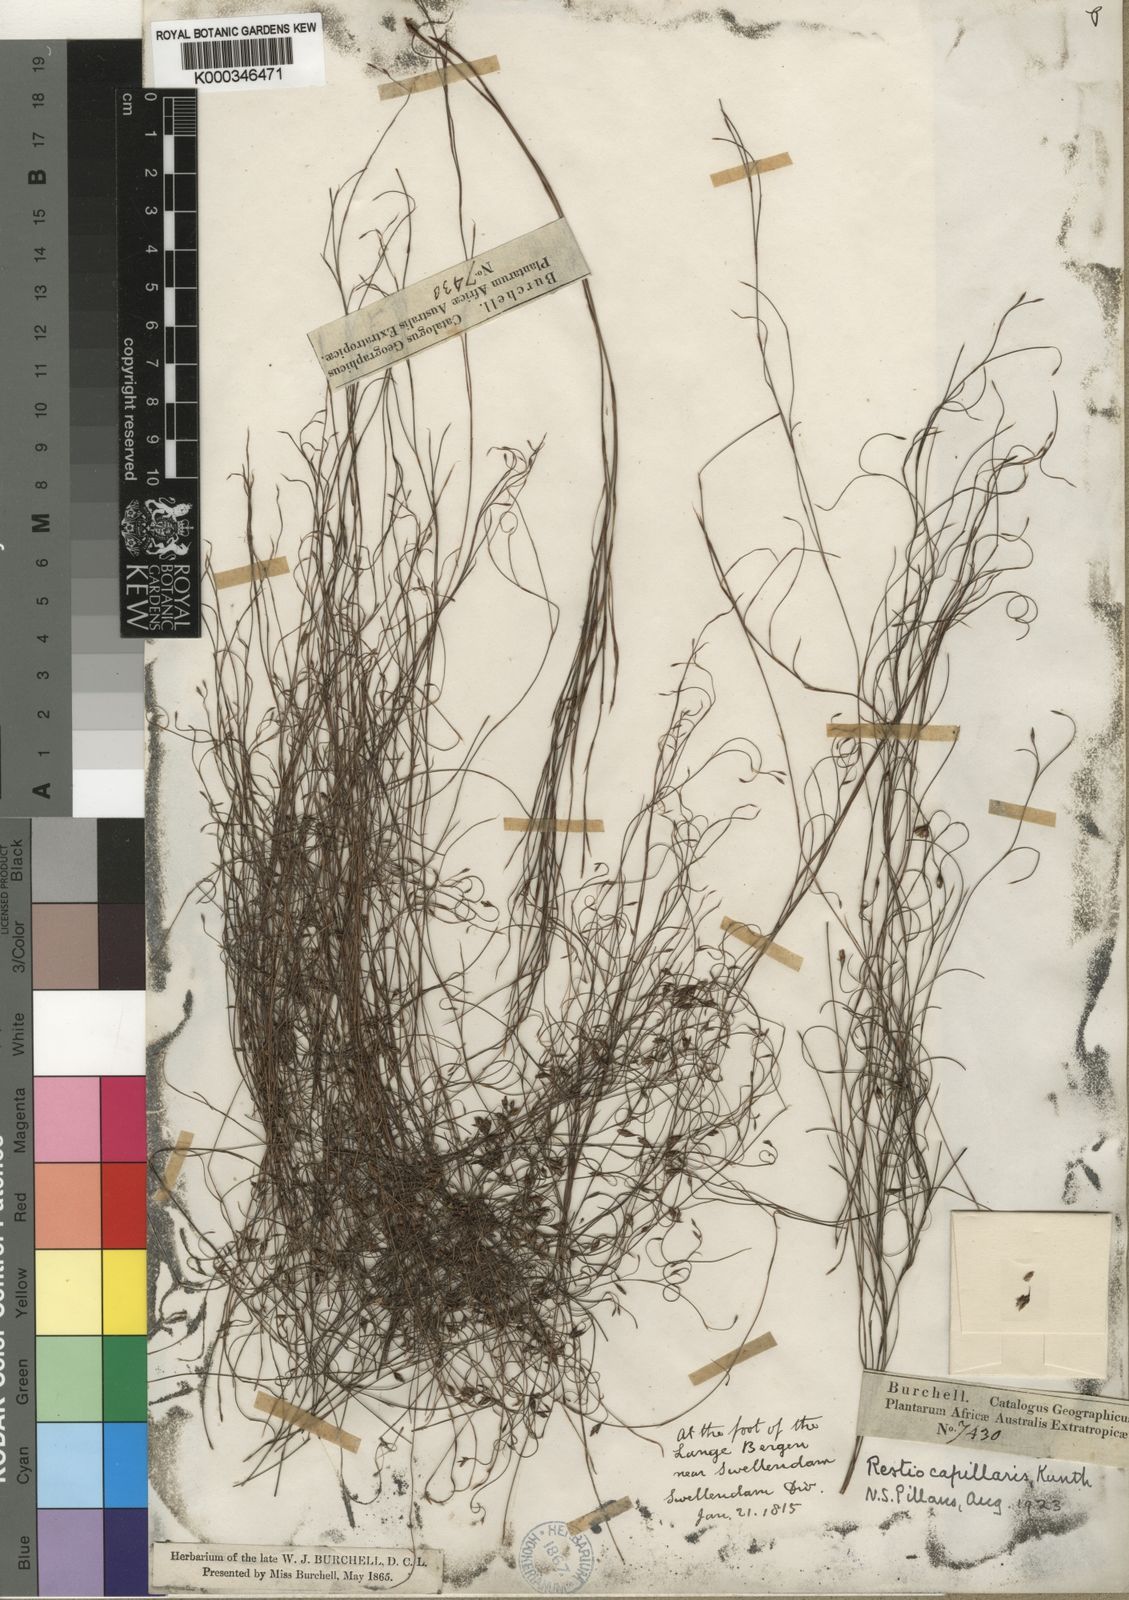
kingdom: Plantae
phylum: Tracheophyta
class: Liliopsida
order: Poales
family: Restionaceae
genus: Restio
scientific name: Restio capillaris
